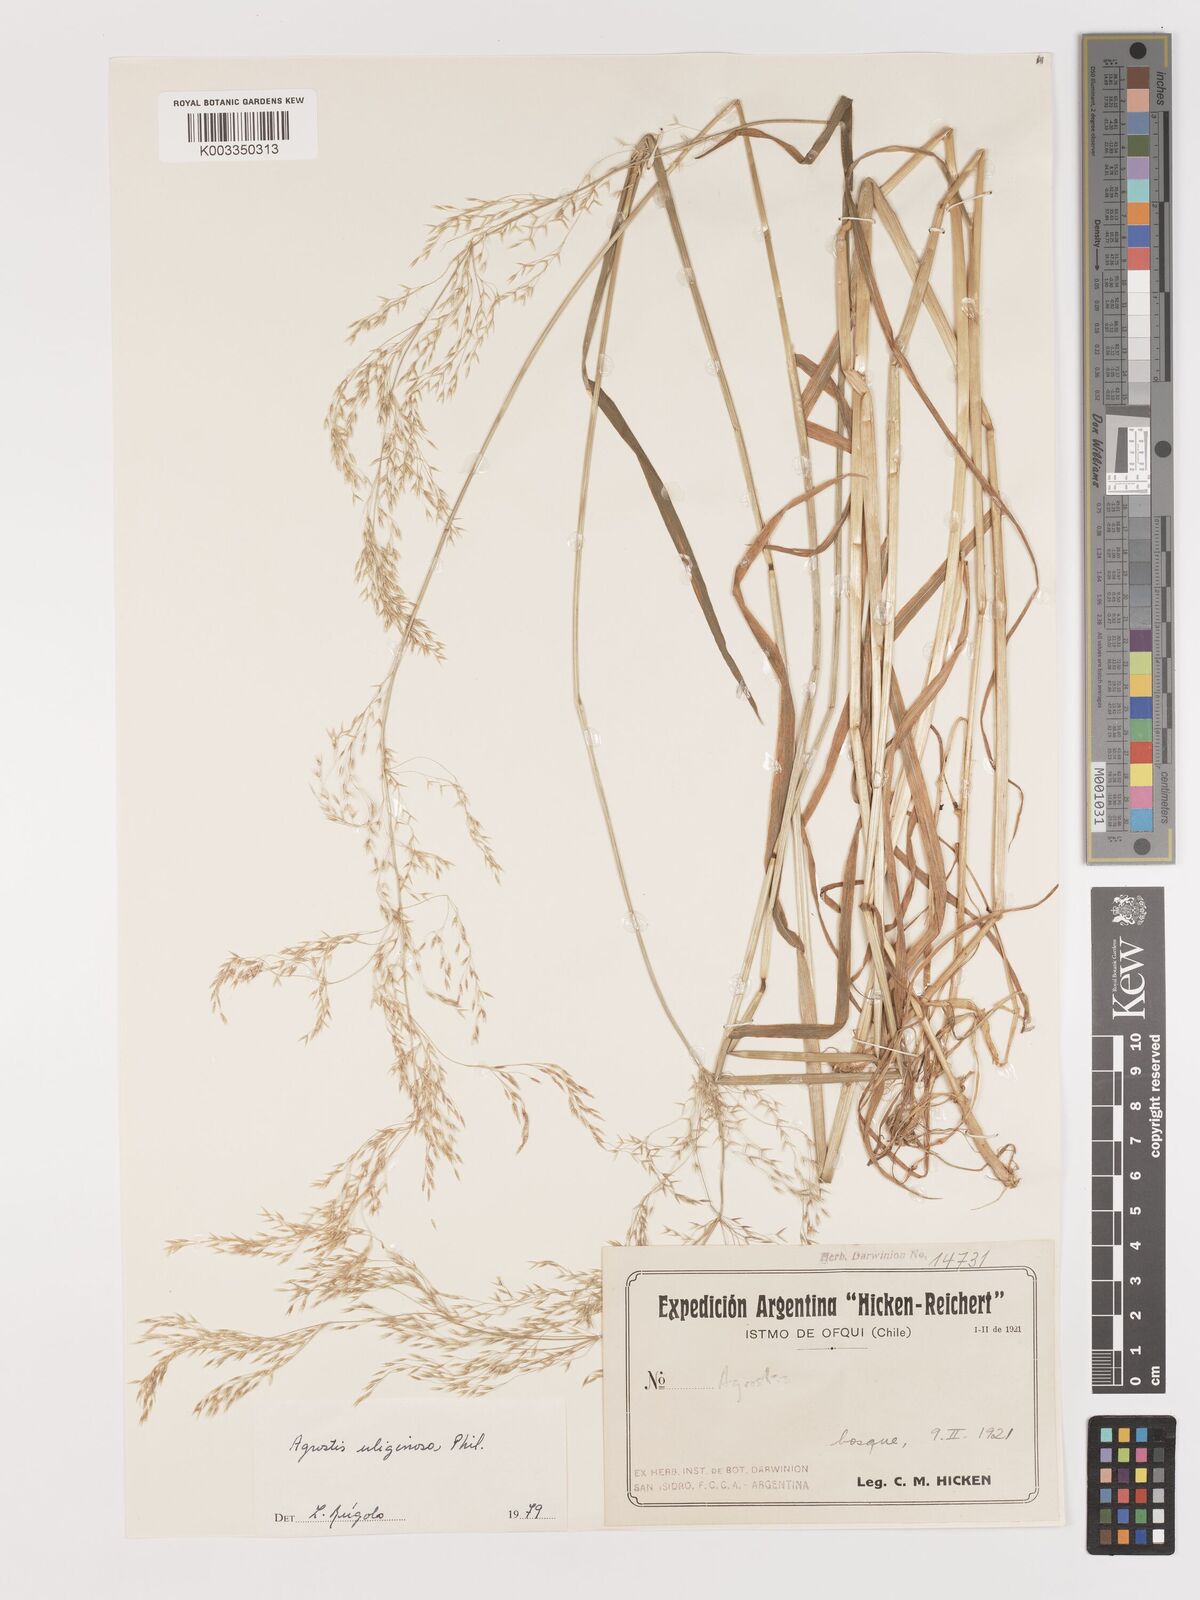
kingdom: Plantae
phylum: Tracheophyta
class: Liliopsida
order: Poales
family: Poaceae
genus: Agrostis
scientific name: Agrostis uliginosa
